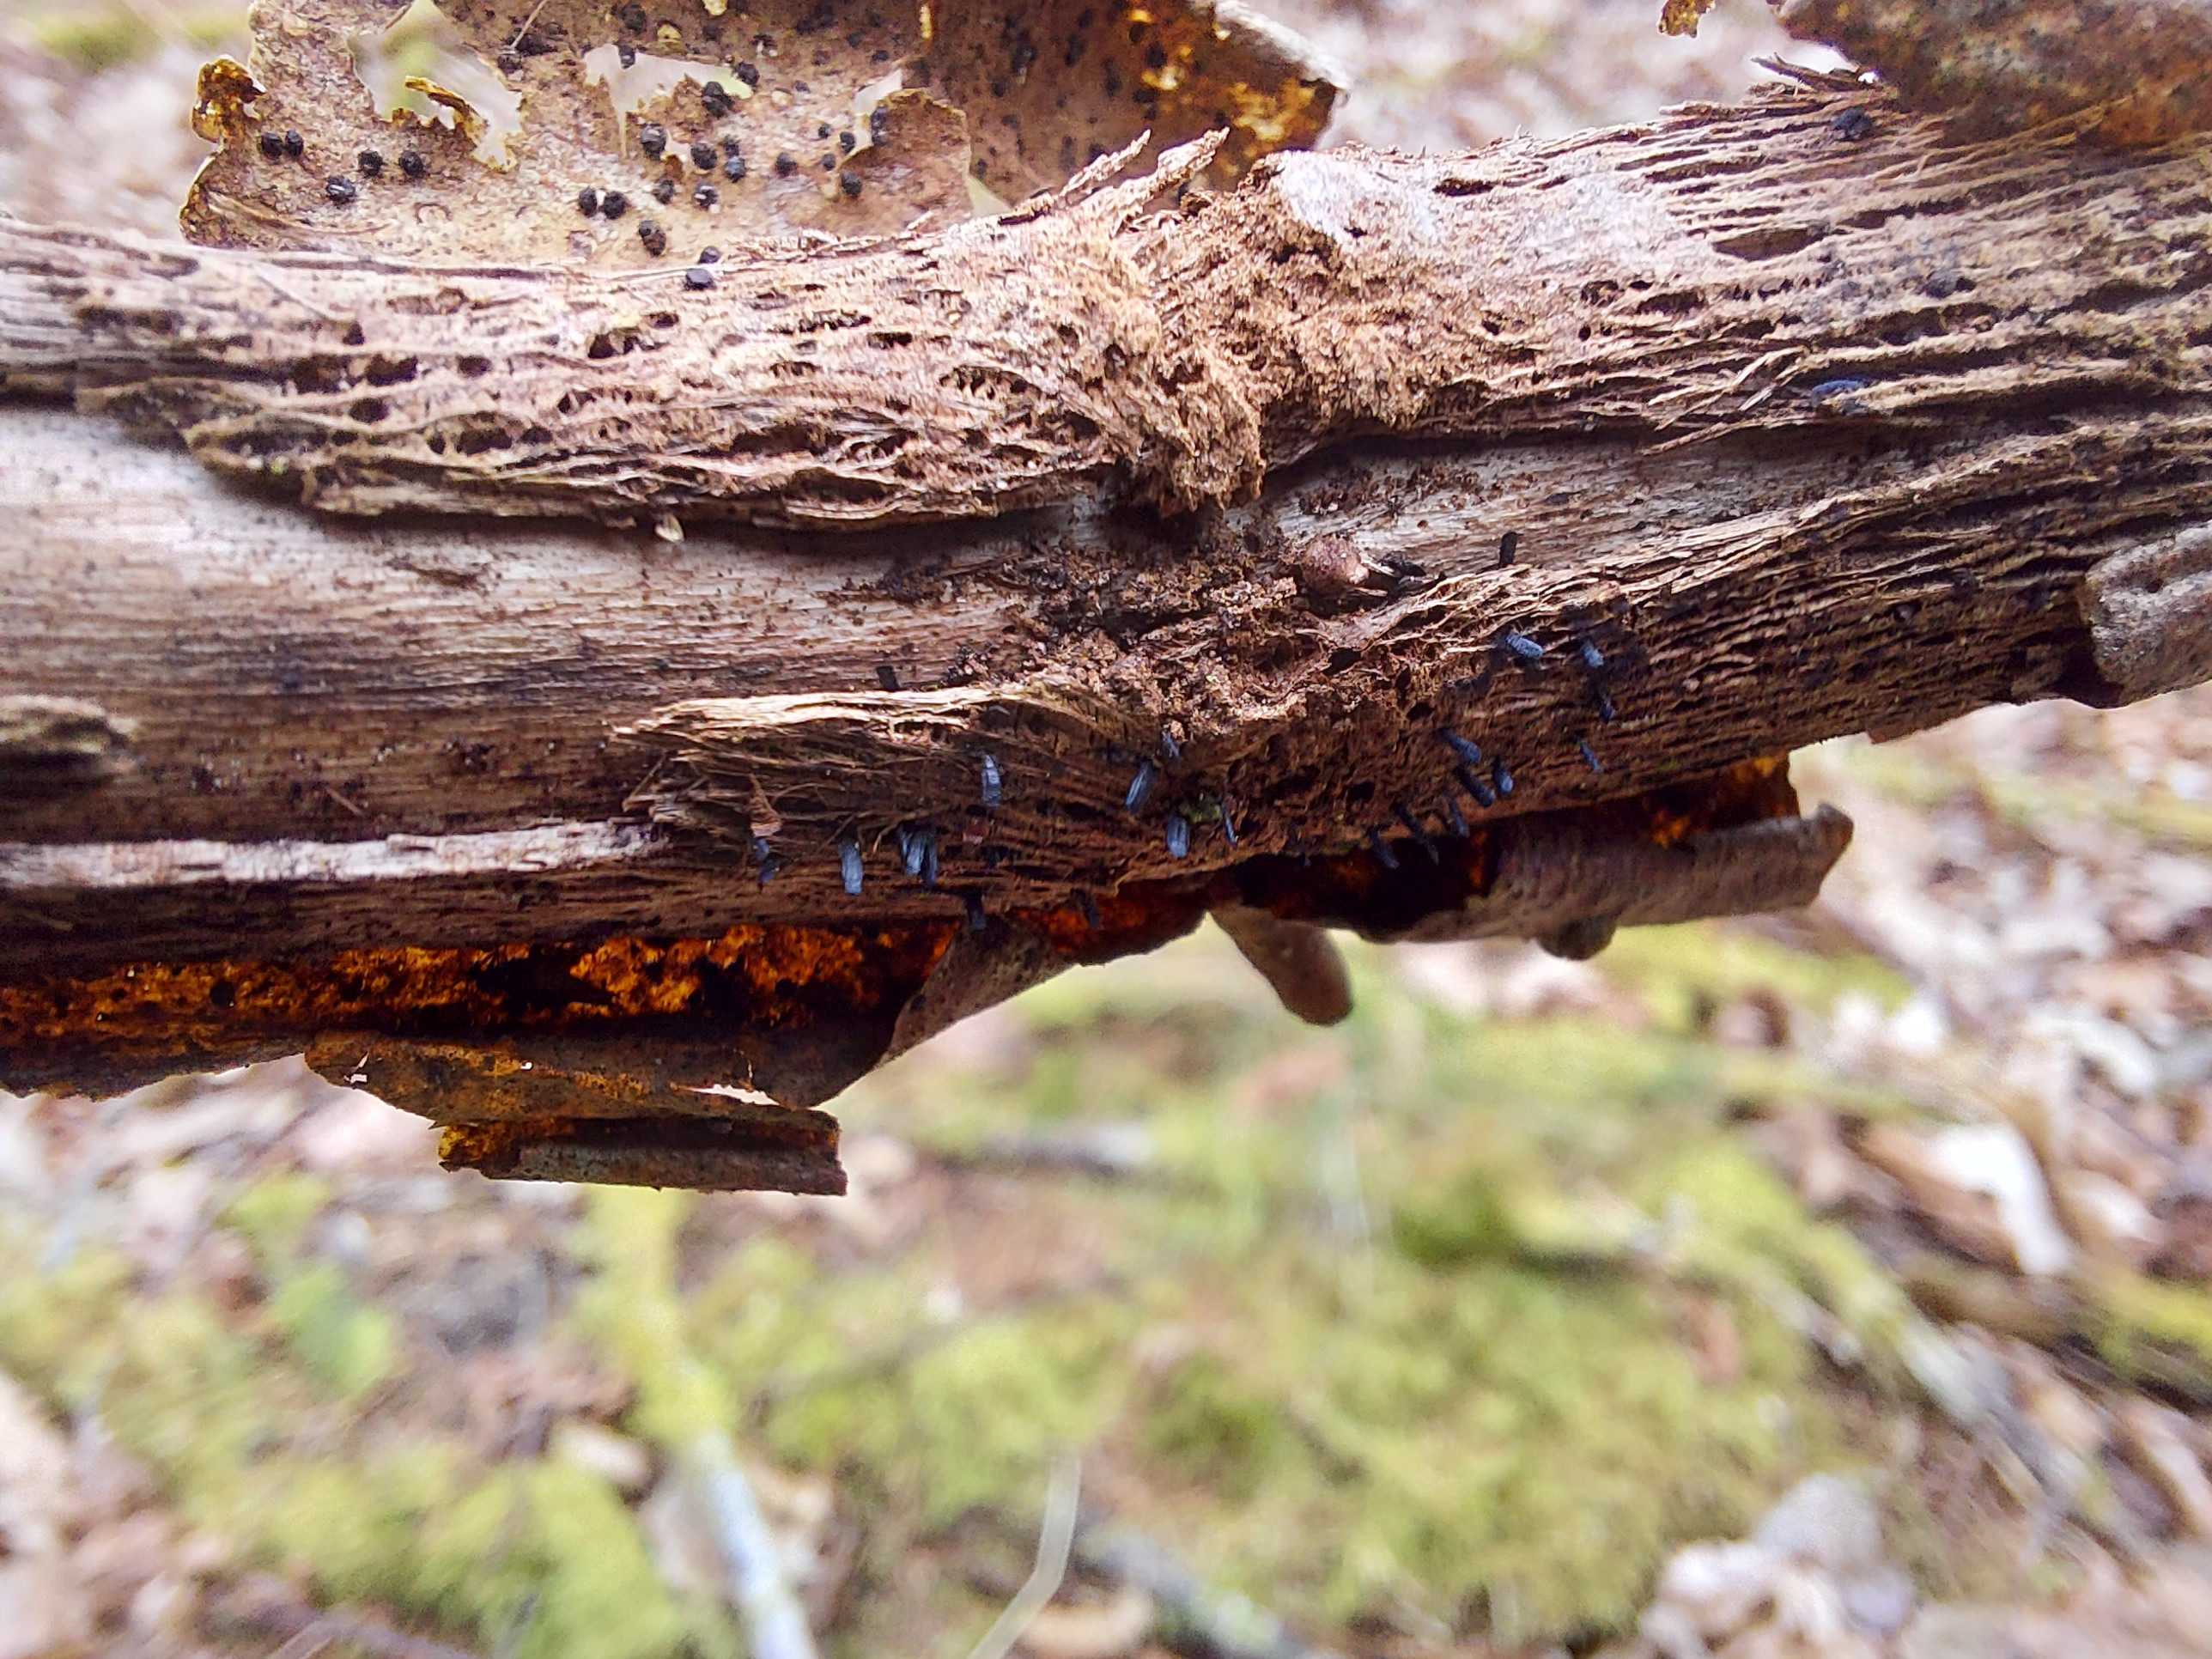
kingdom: Fungi
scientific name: Fungi
